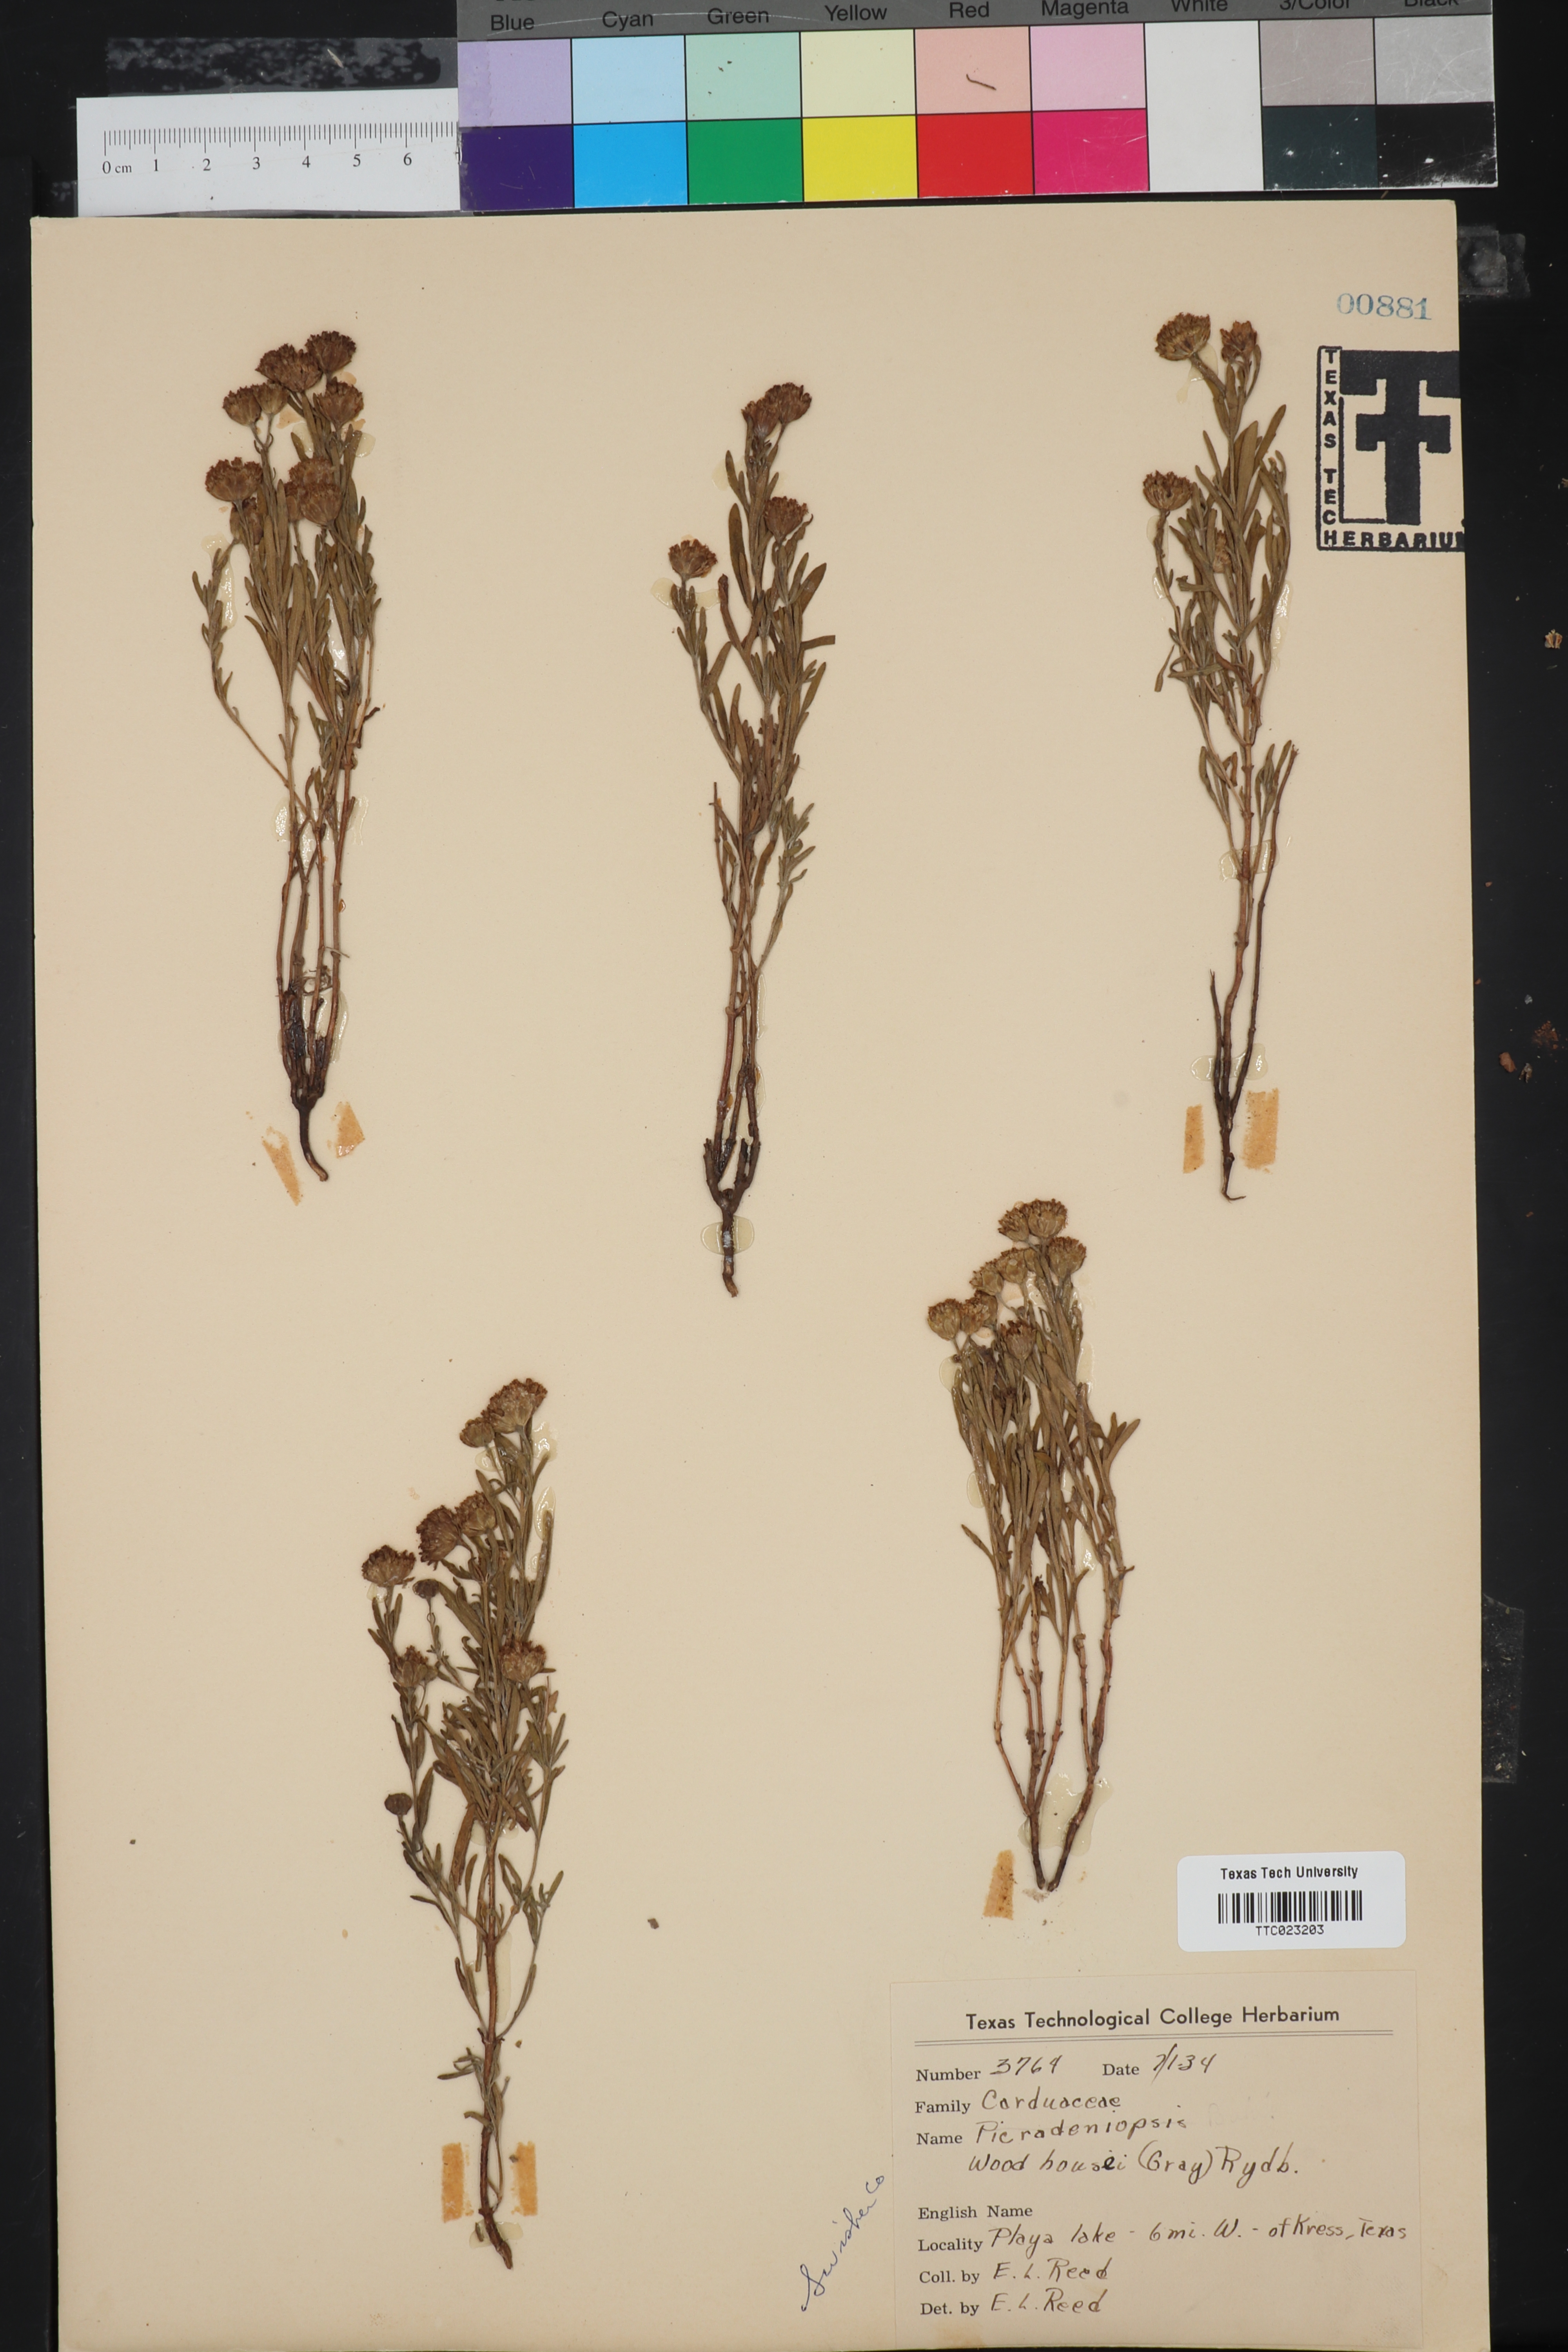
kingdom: Plantae
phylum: Tracheophyta
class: Magnoliopsida
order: Asterales
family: Asteraceae
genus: Picradeniopsis
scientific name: Picradeniopsis woodhousei
